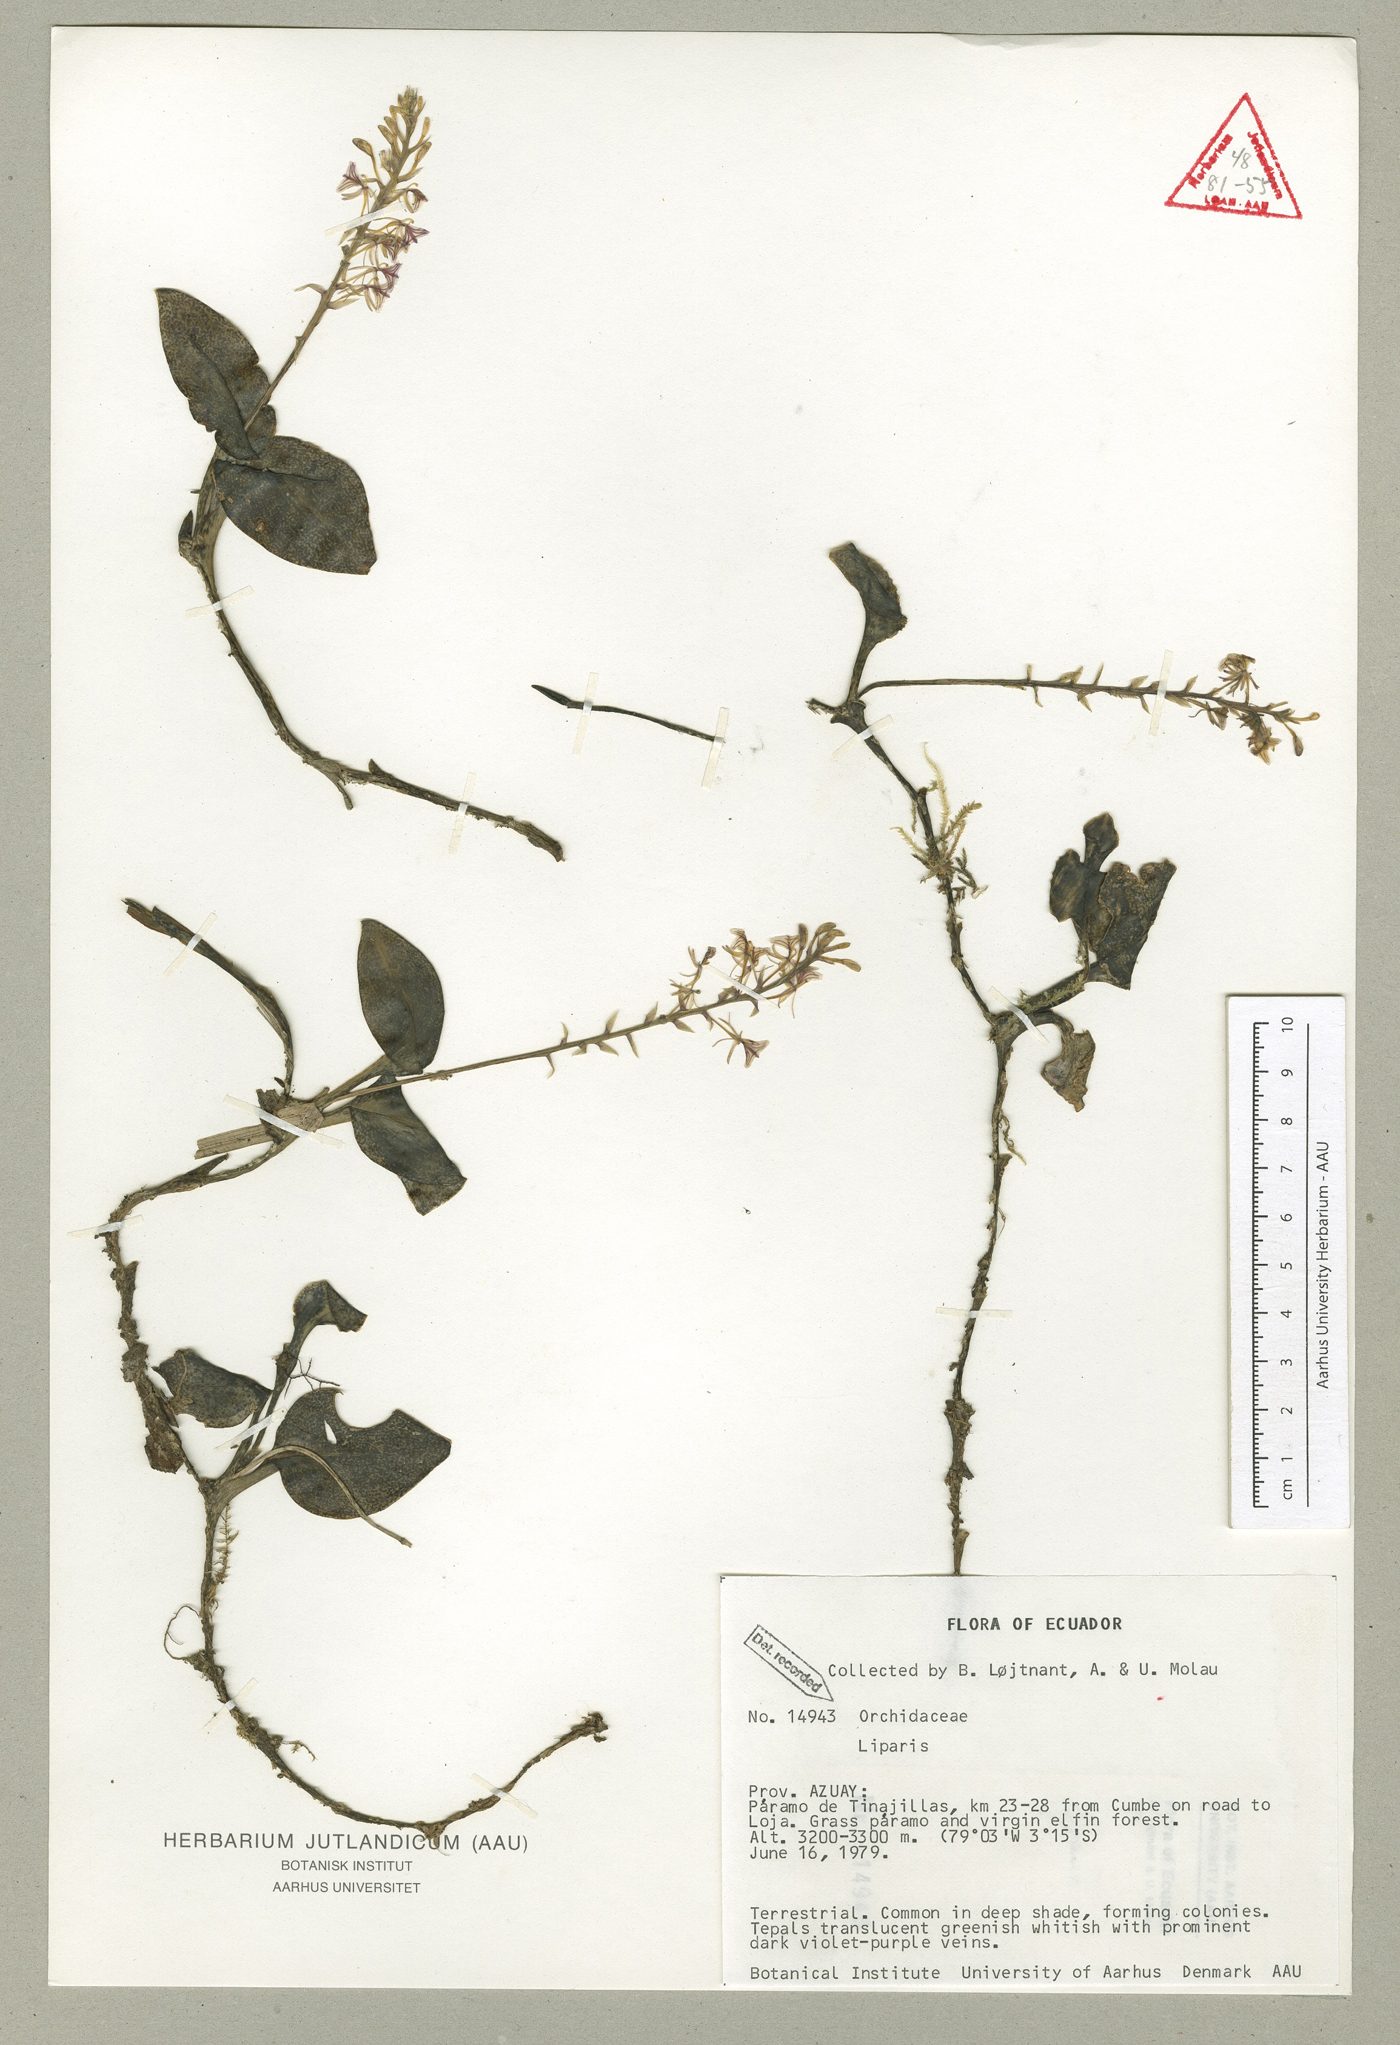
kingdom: Plantae
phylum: Tracheophyta
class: Liliopsida
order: Asparagales
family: Orchidaceae
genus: Liparis
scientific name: Liparis elegantula
